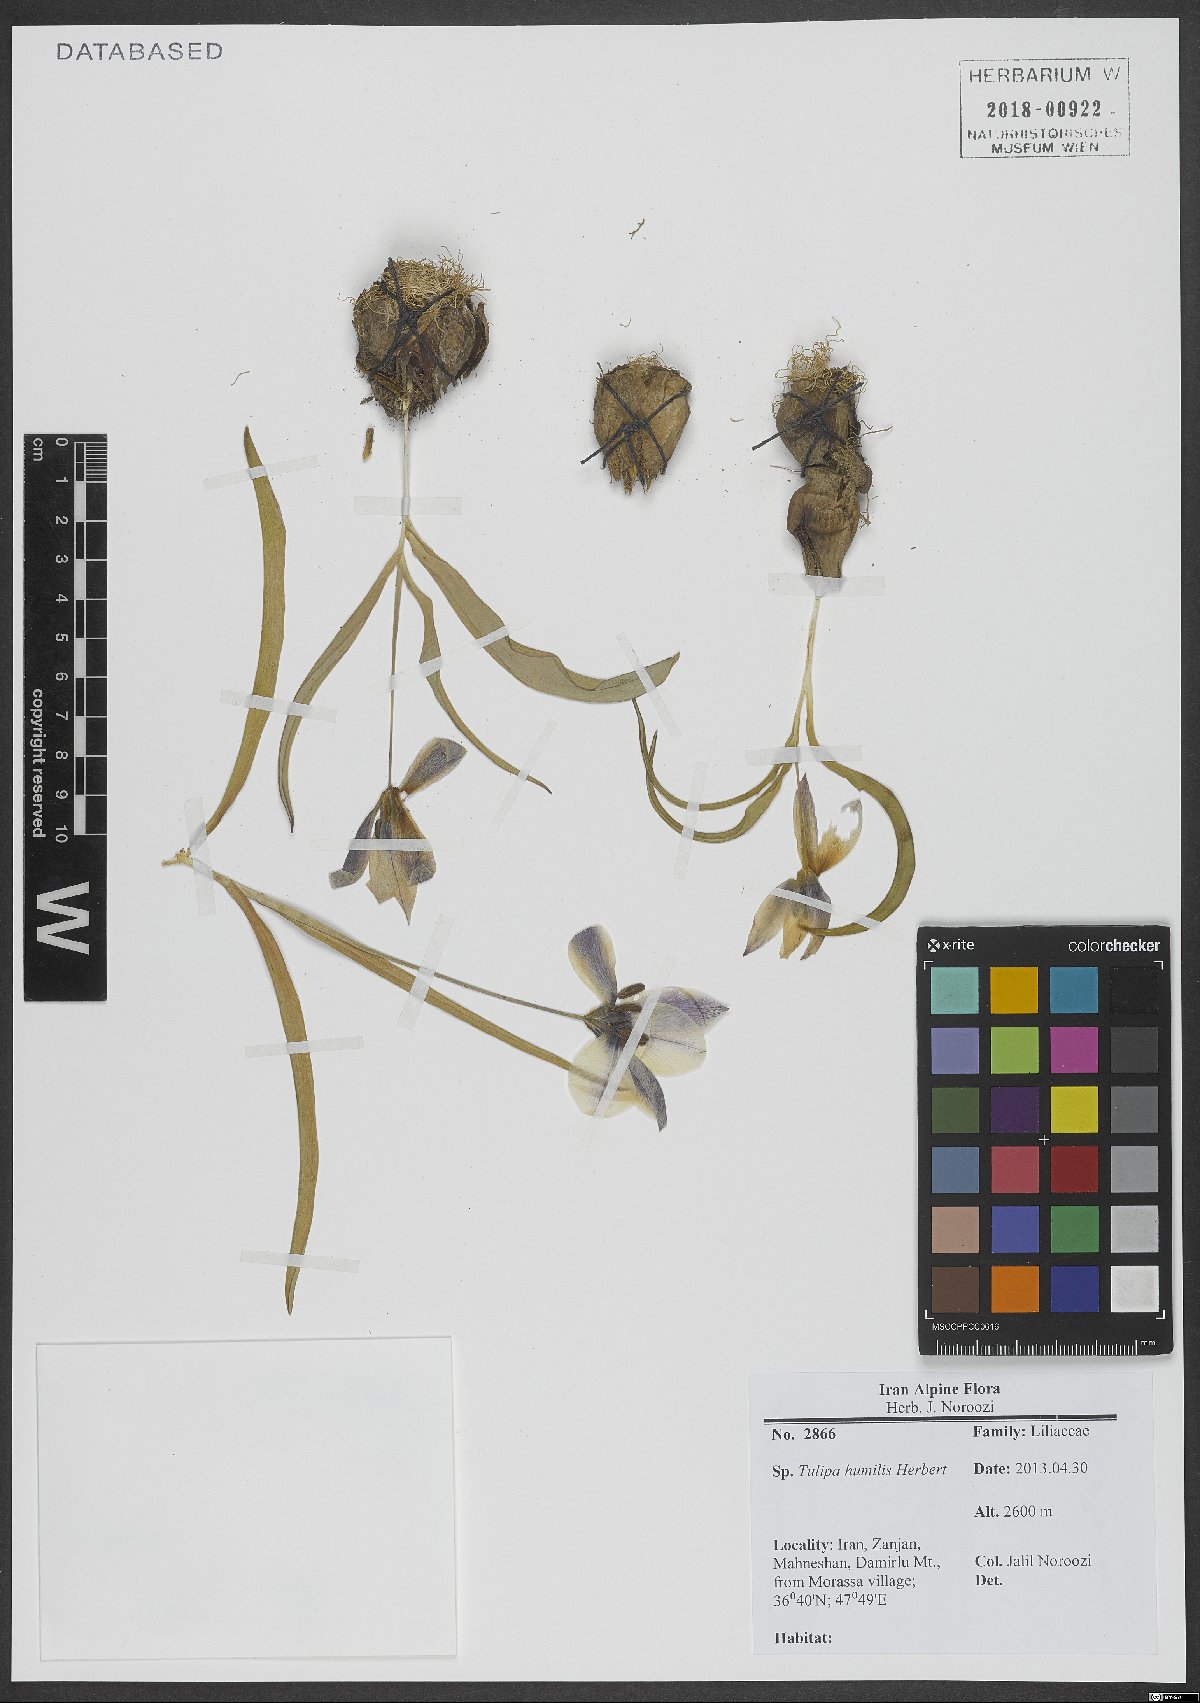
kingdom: Plantae
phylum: Tracheophyta
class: Liliopsida
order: Liliales
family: Liliaceae
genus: Tulipa
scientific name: Tulipa humilis
